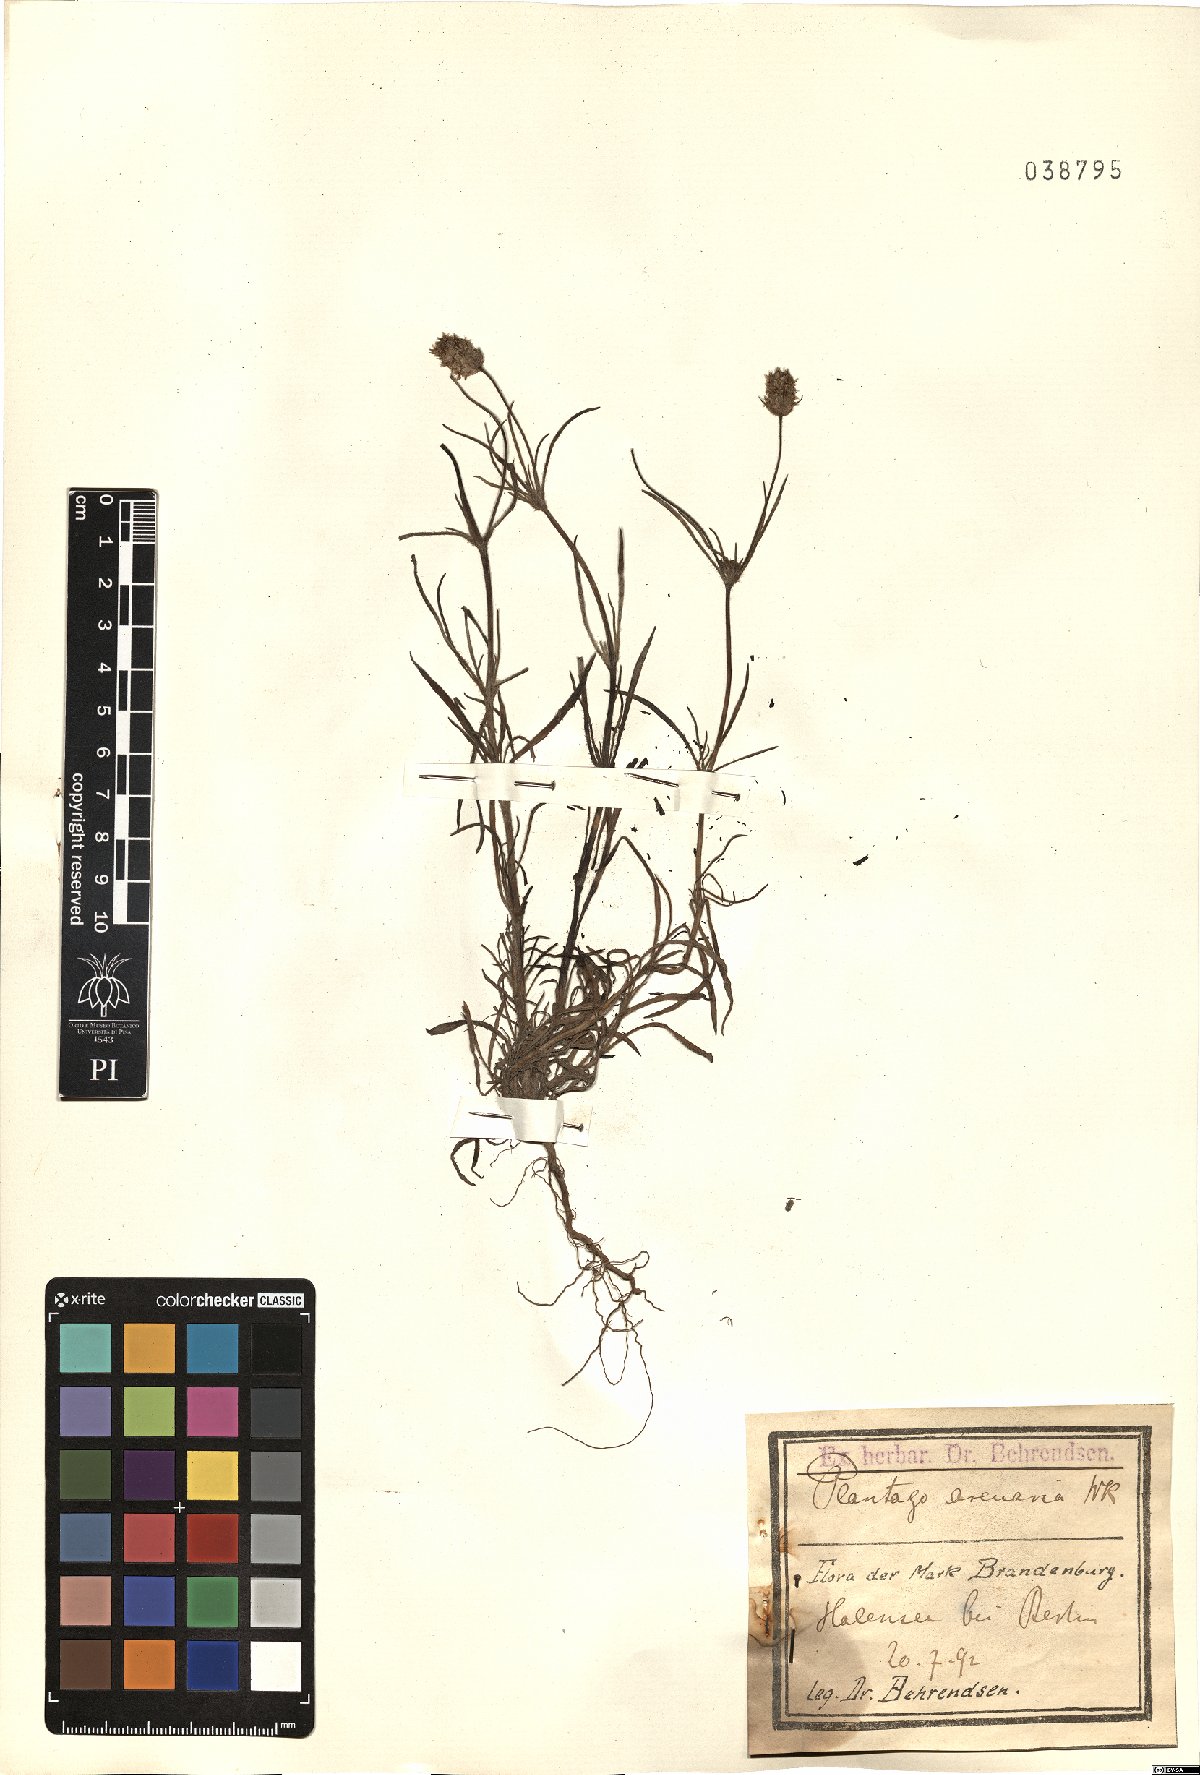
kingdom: Plantae
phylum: Tracheophyta
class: Magnoliopsida
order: Lamiales
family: Plantaginaceae
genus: Plantago
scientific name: Plantago arenaria
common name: Branched plantain
